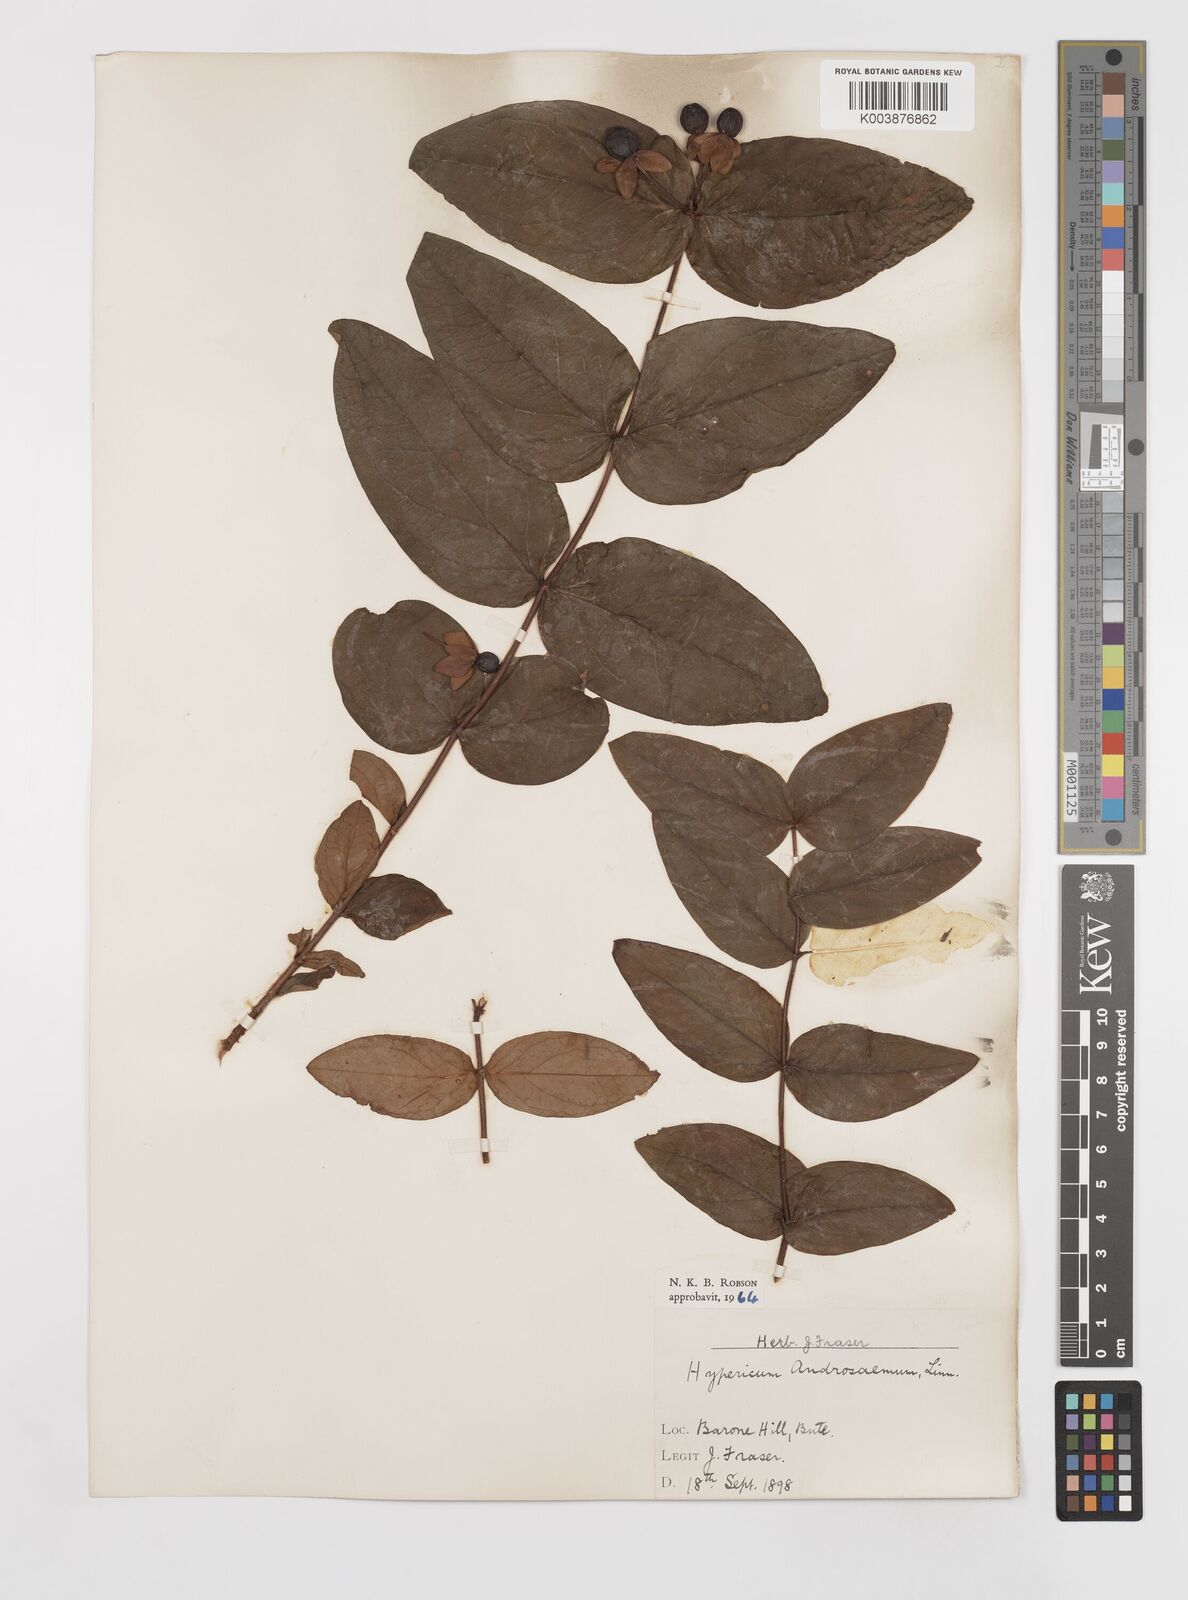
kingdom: Plantae
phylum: Tracheophyta
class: Magnoliopsida
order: Malpighiales
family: Hypericaceae
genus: Hypericum
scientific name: Hypericum androsaemum
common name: Sweet-amber
